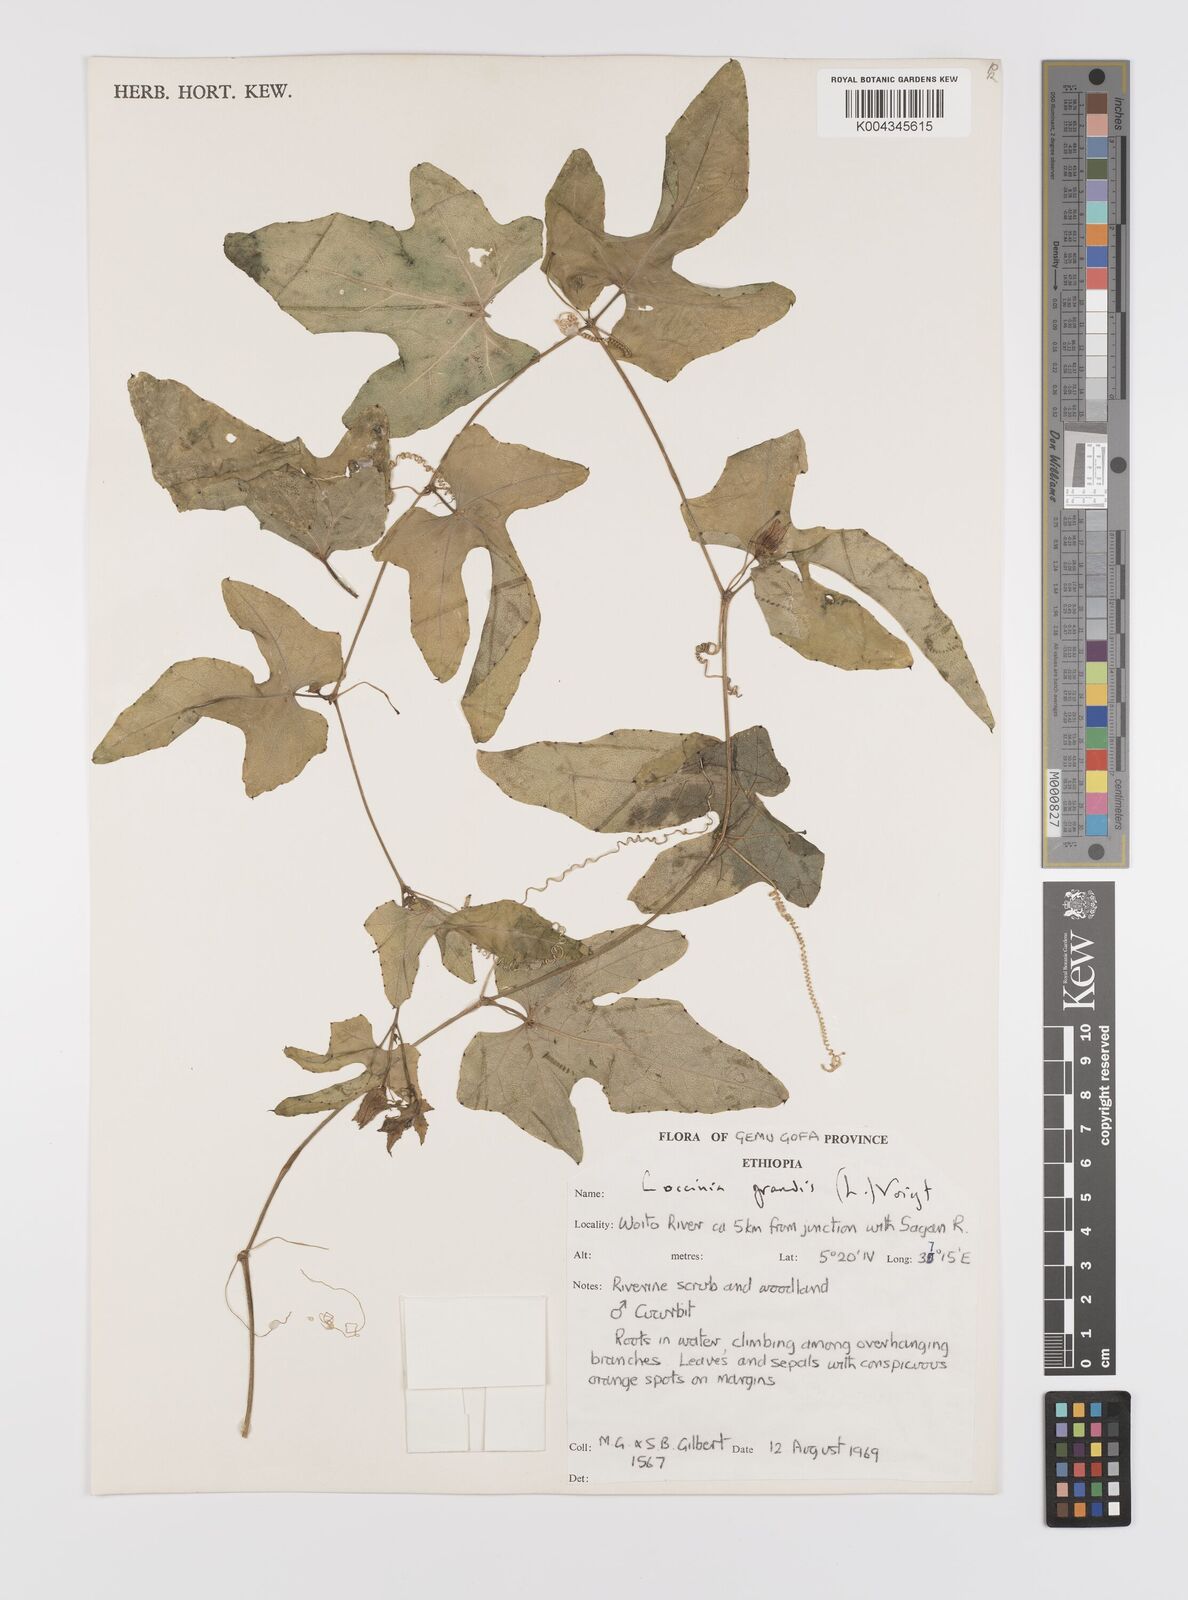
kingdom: Plantae
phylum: Tracheophyta
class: Magnoliopsida
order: Cucurbitales
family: Cucurbitaceae
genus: Coccinia
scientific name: Coccinia grandis
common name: Ivy gourd
